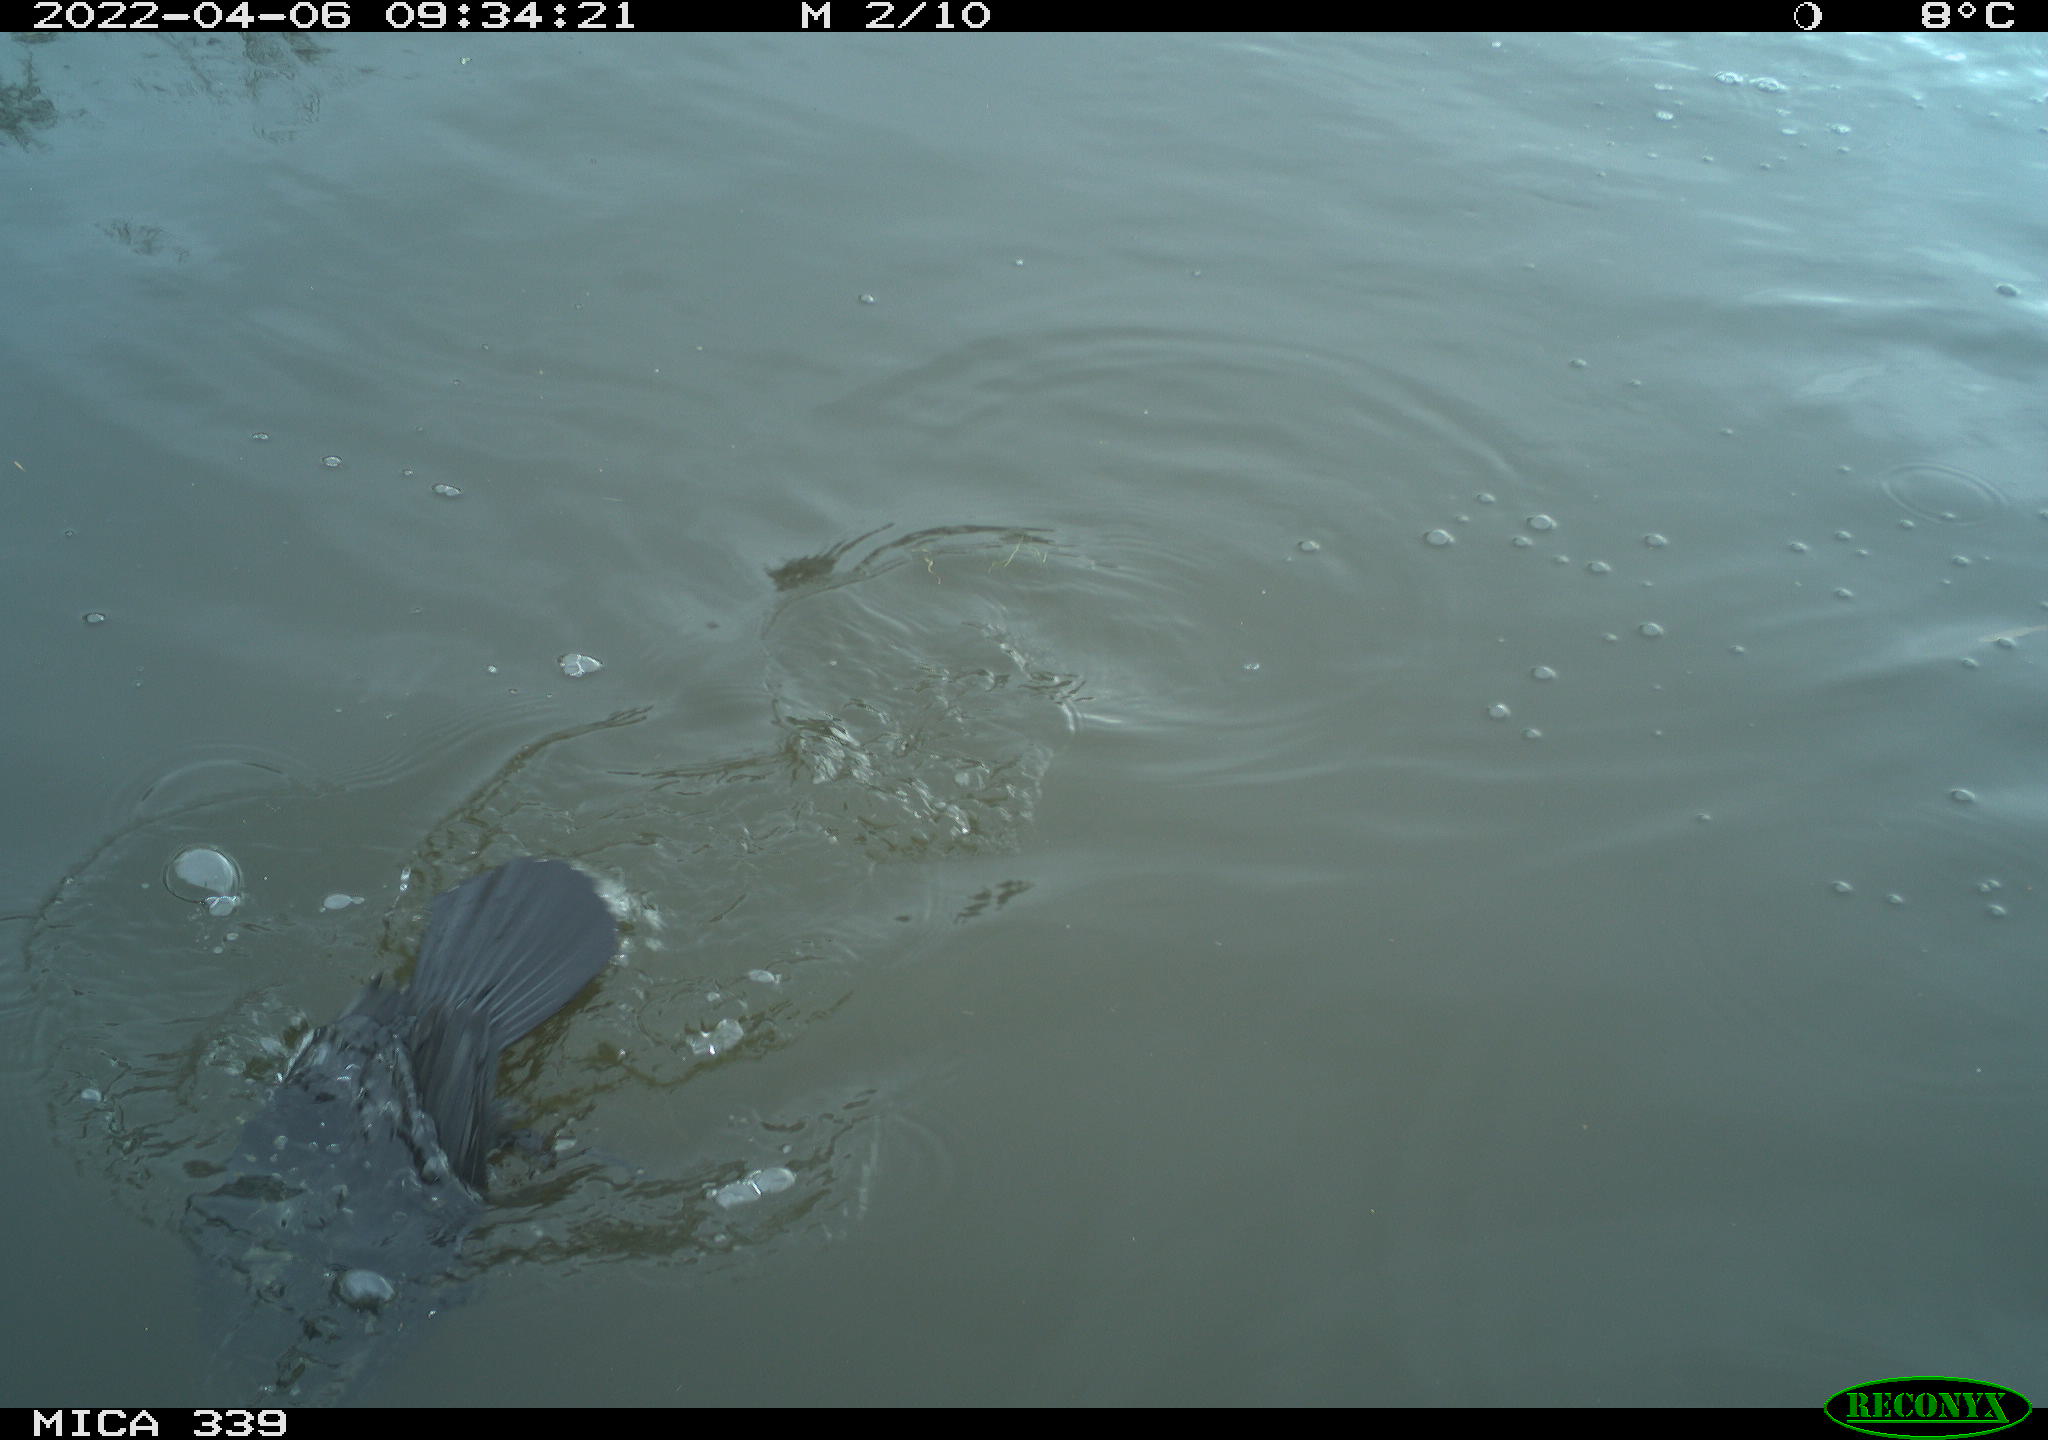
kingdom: Animalia
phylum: Chordata
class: Aves
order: Suliformes
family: Phalacrocoracidae
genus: Phalacrocorax
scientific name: Phalacrocorax carbo
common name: Great cormorant
